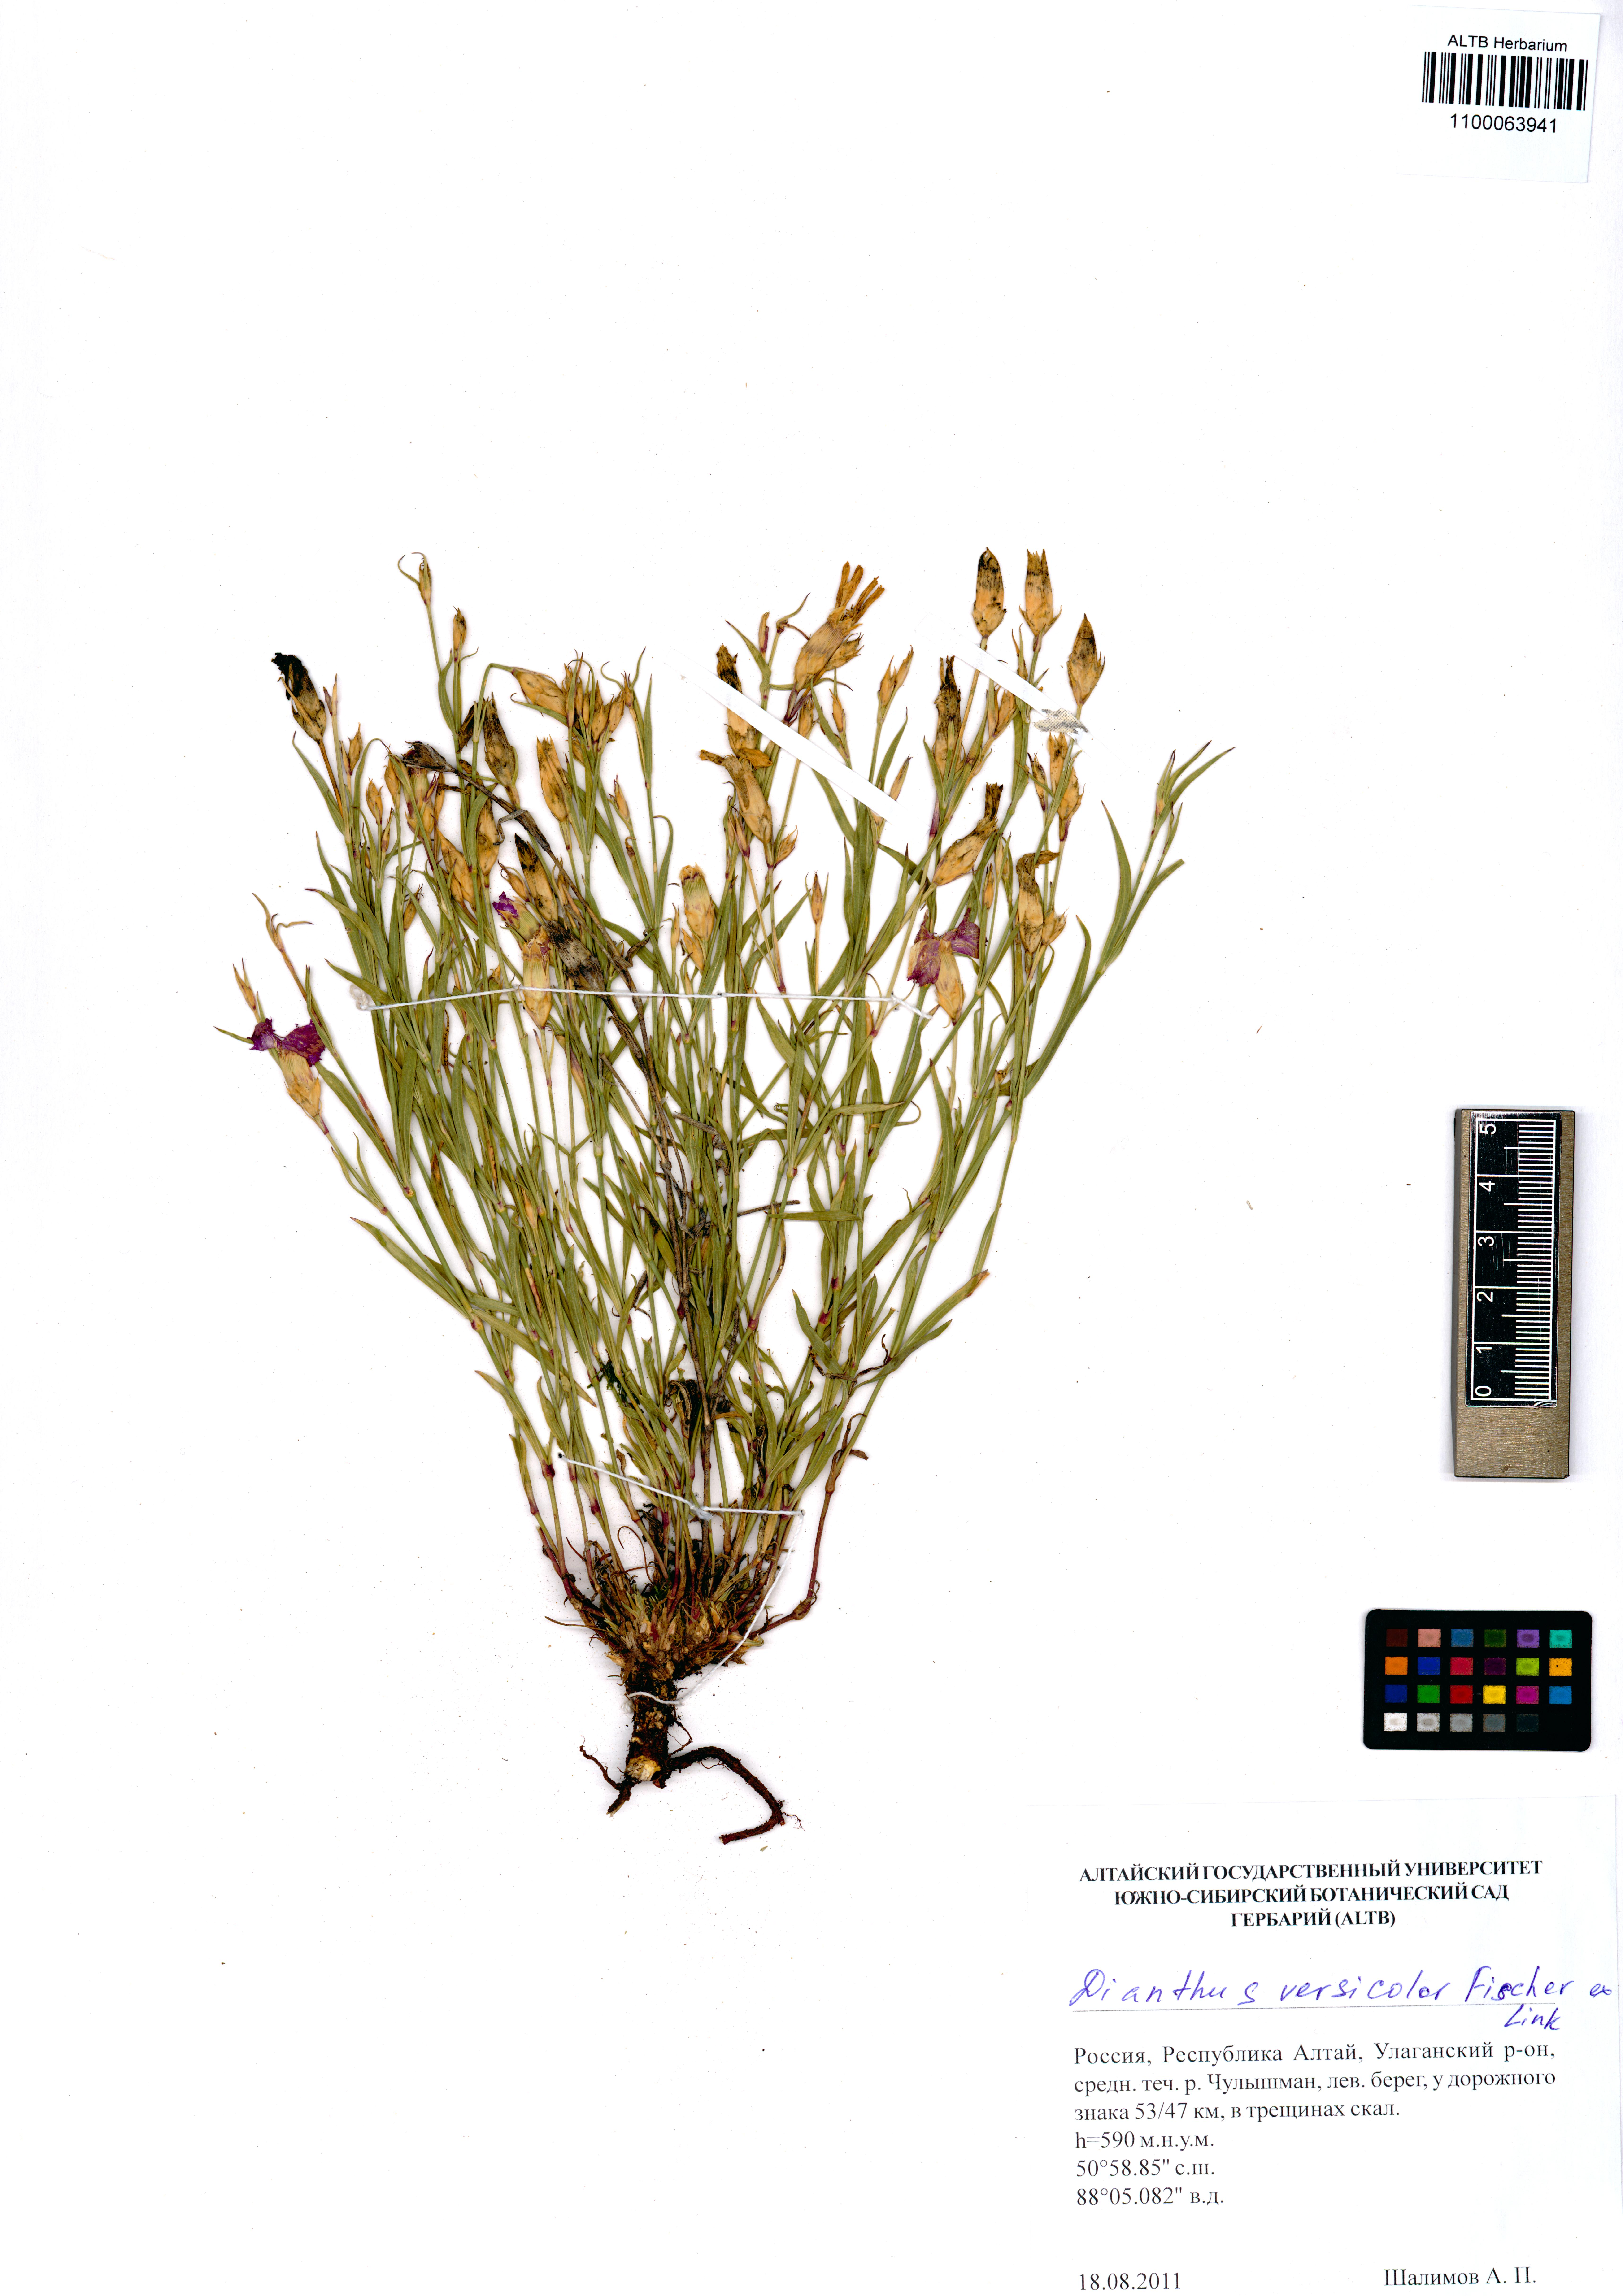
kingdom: Plantae
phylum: Tracheophyta
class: Magnoliopsida
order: Caryophyllales
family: Caryophyllaceae
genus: Dianthus
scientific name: Dianthus chinensis
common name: Rainbow pink
